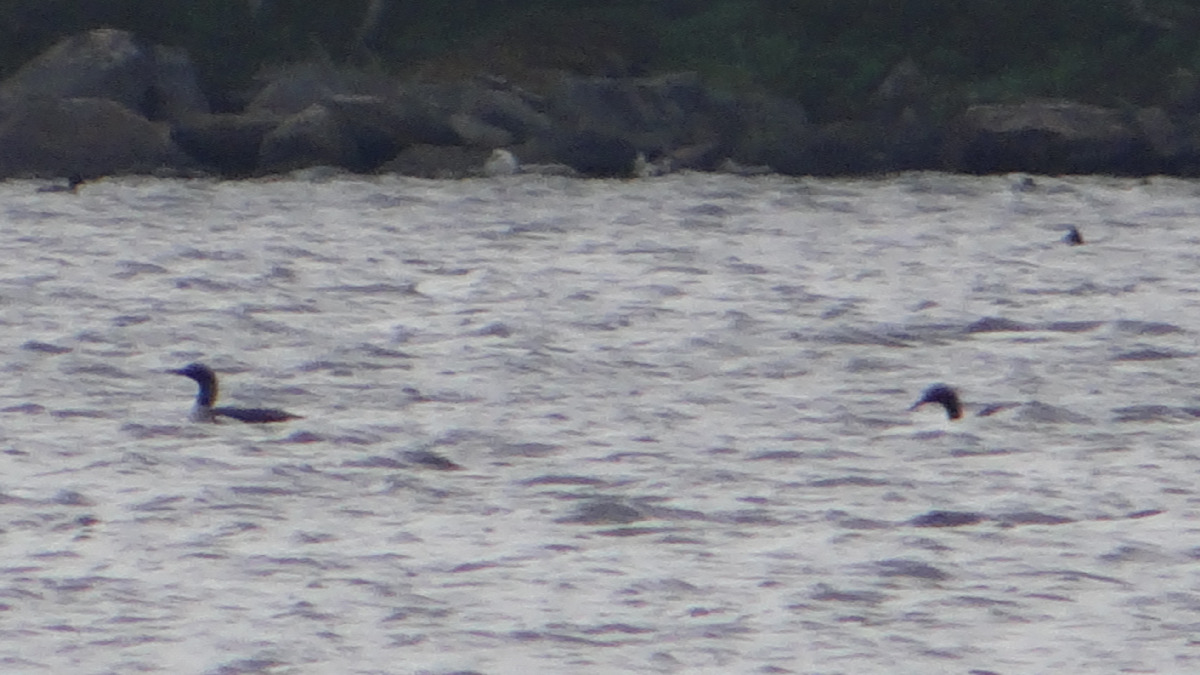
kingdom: Animalia
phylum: Chordata
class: Aves
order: Gaviiformes
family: Gaviidae
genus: Gavia
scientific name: Gavia arctica
